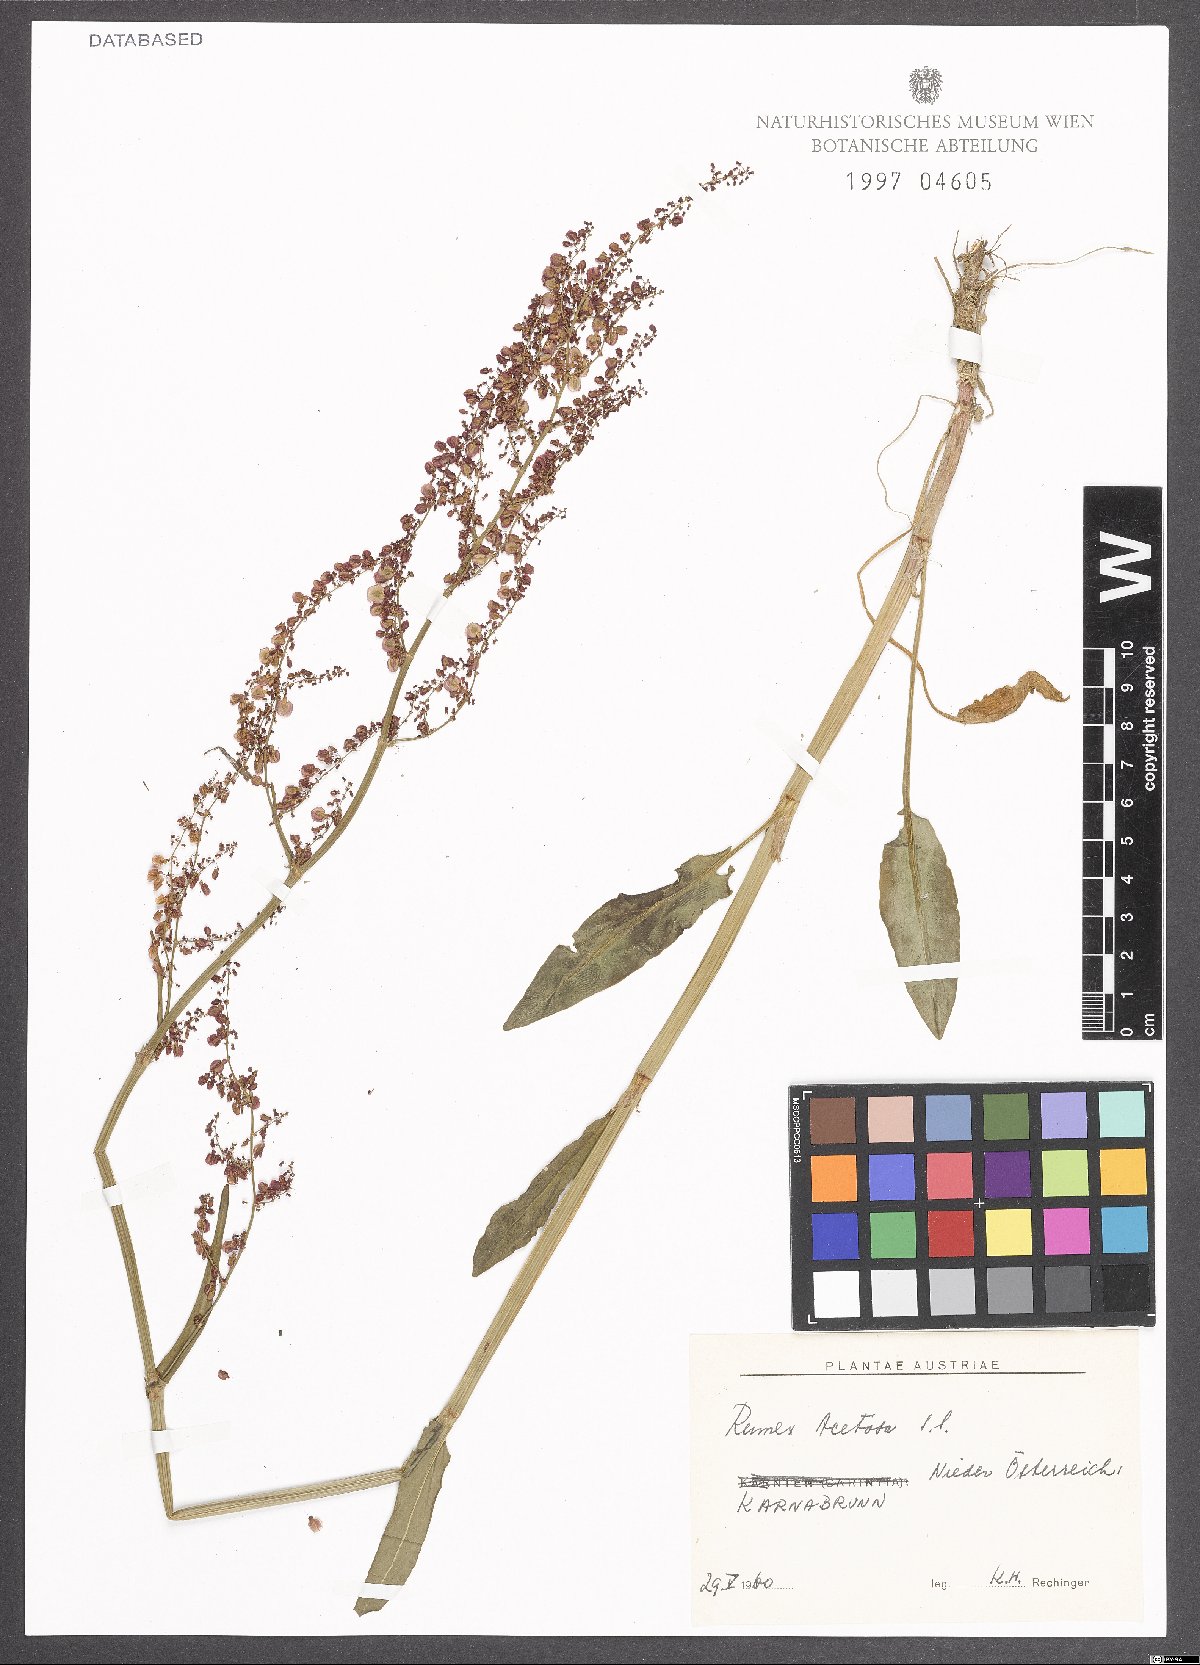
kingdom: Plantae
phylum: Tracheophyta
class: Magnoliopsida
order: Caryophyllales
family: Polygonaceae
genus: Rumex
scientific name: Rumex acetosa
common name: Garden sorrel
